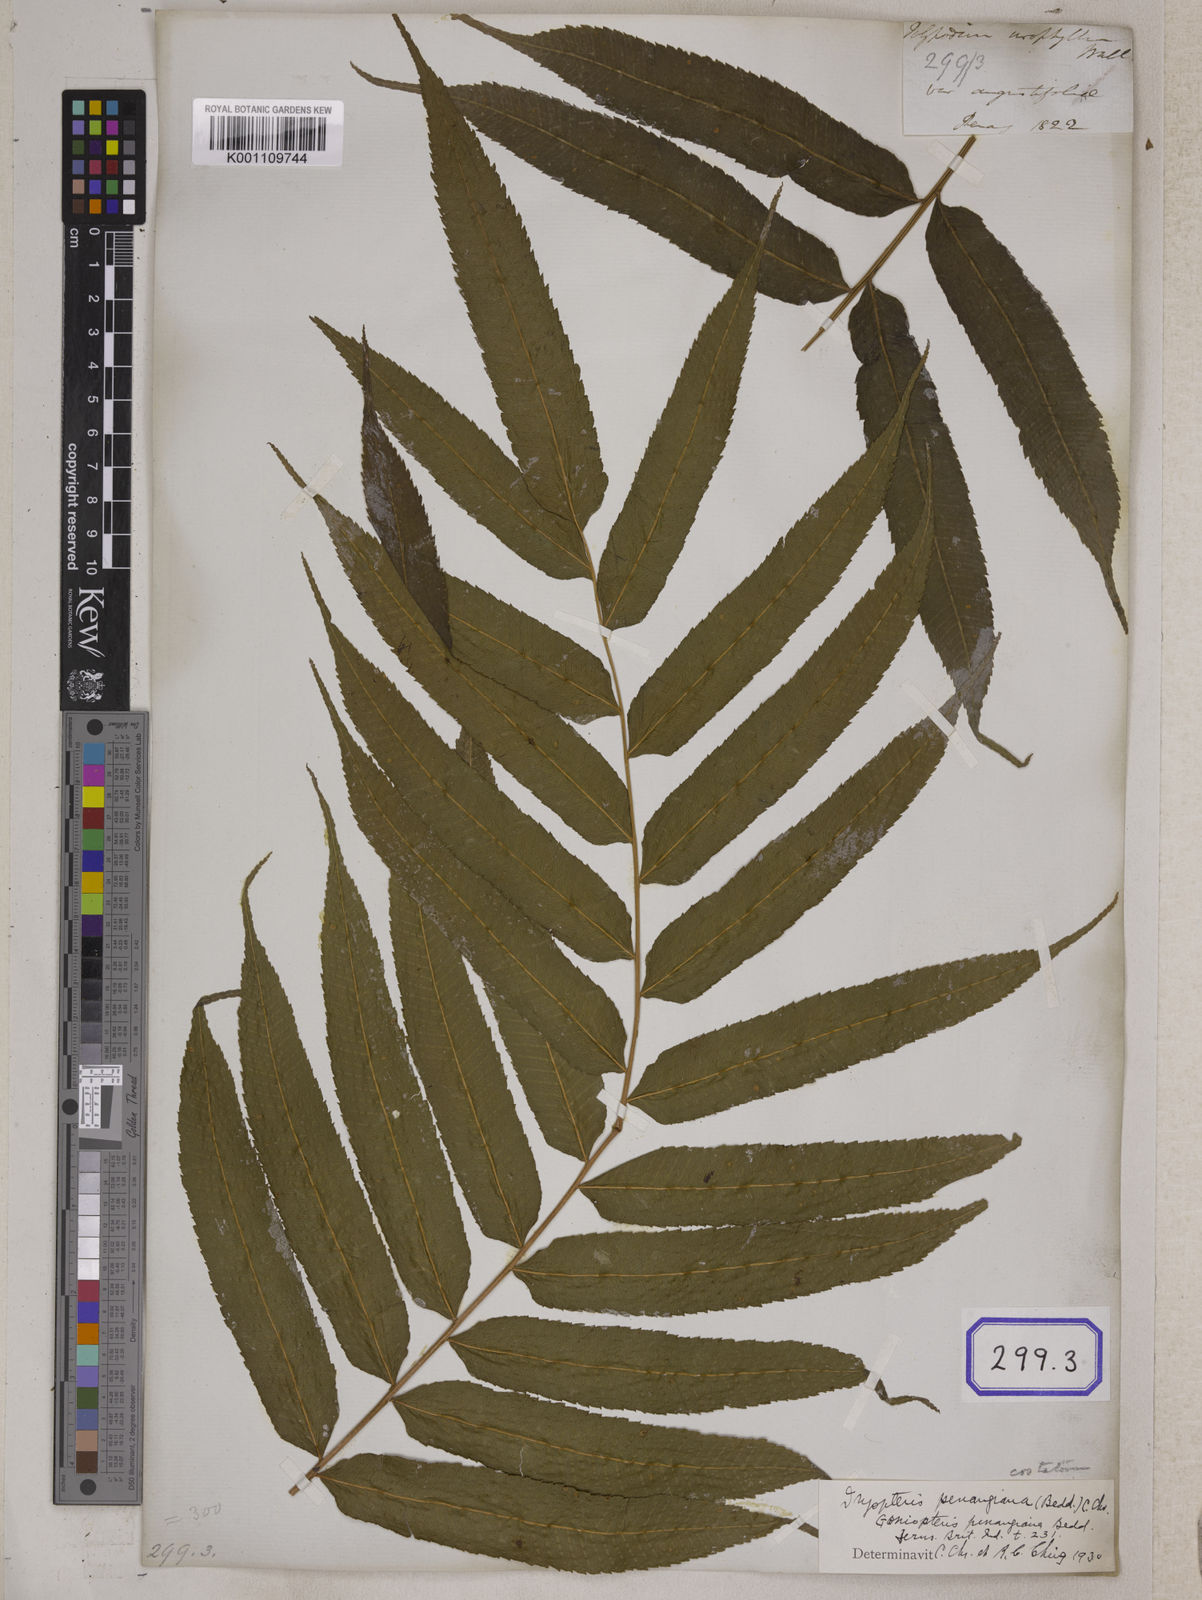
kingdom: Plantae
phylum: Tracheophyta
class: Polypodiopsida
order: Polypodiales
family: Thelypteridaceae
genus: Menisciopsis
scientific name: Menisciopsis penangiana
